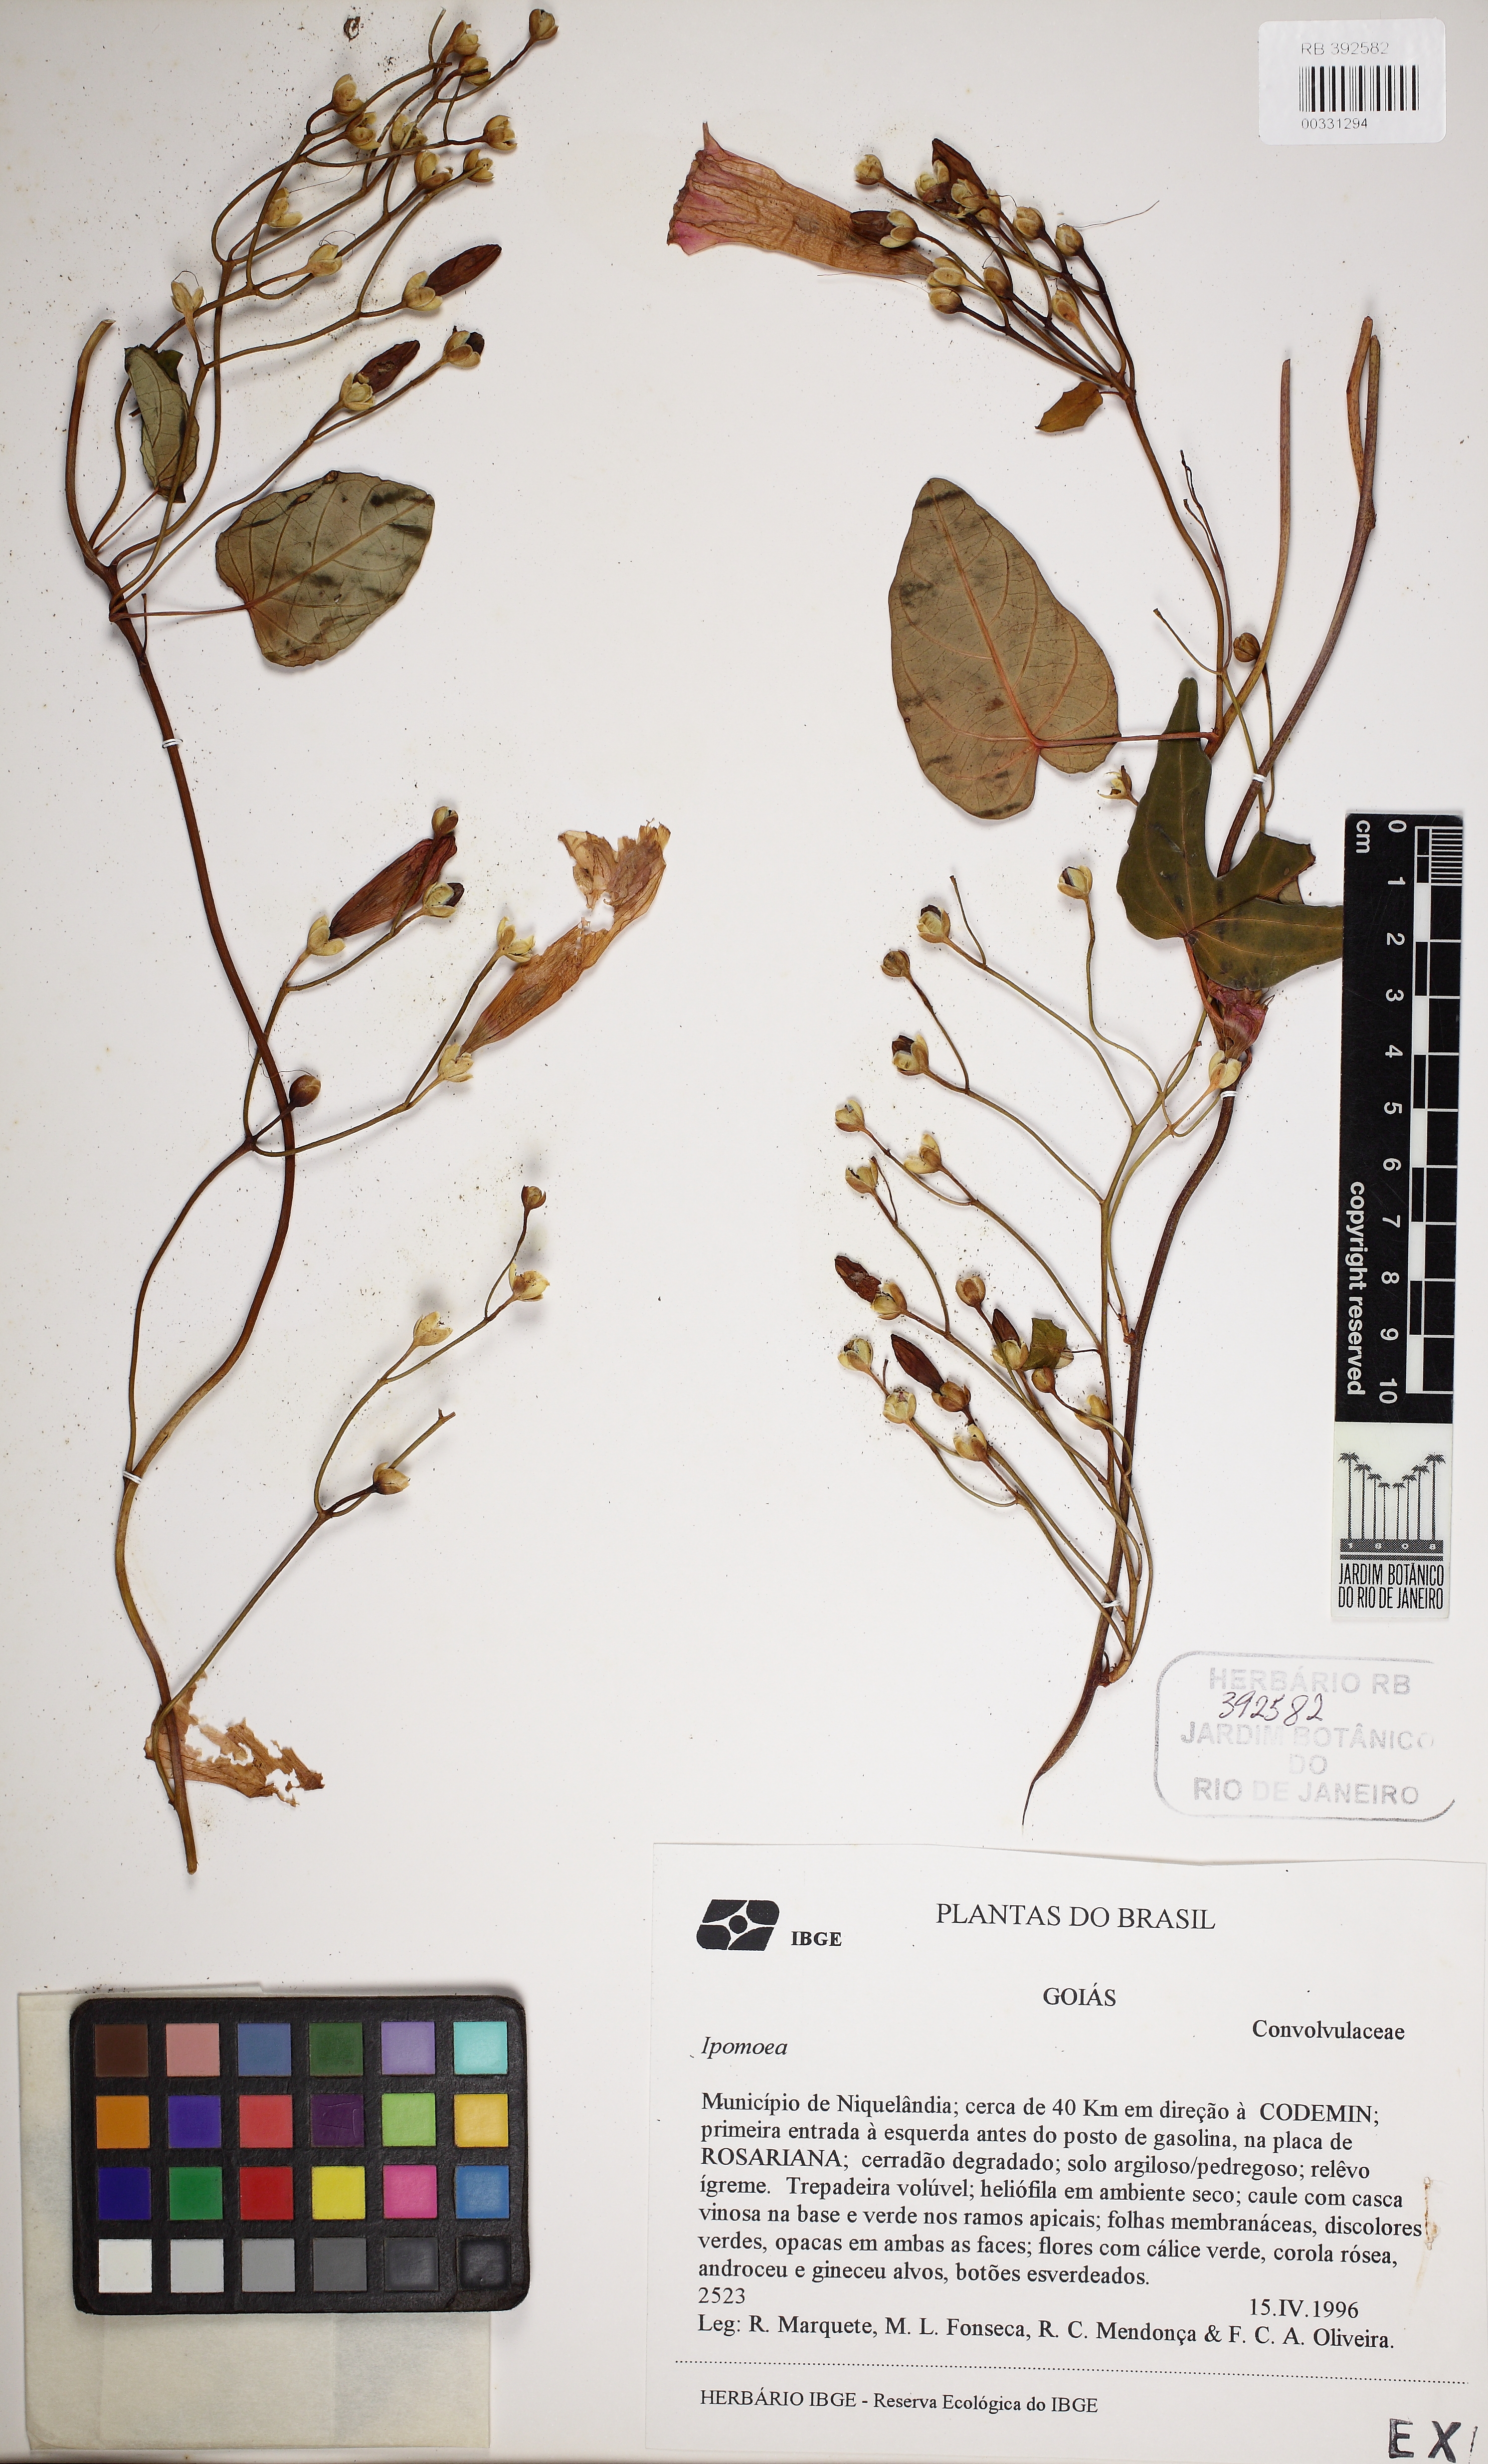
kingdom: Plantae
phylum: Tracheophyta
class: Magnoliopsida
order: Solanales
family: Convolvulaceae
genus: Ipomoea
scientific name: Ipomoea batatoides
